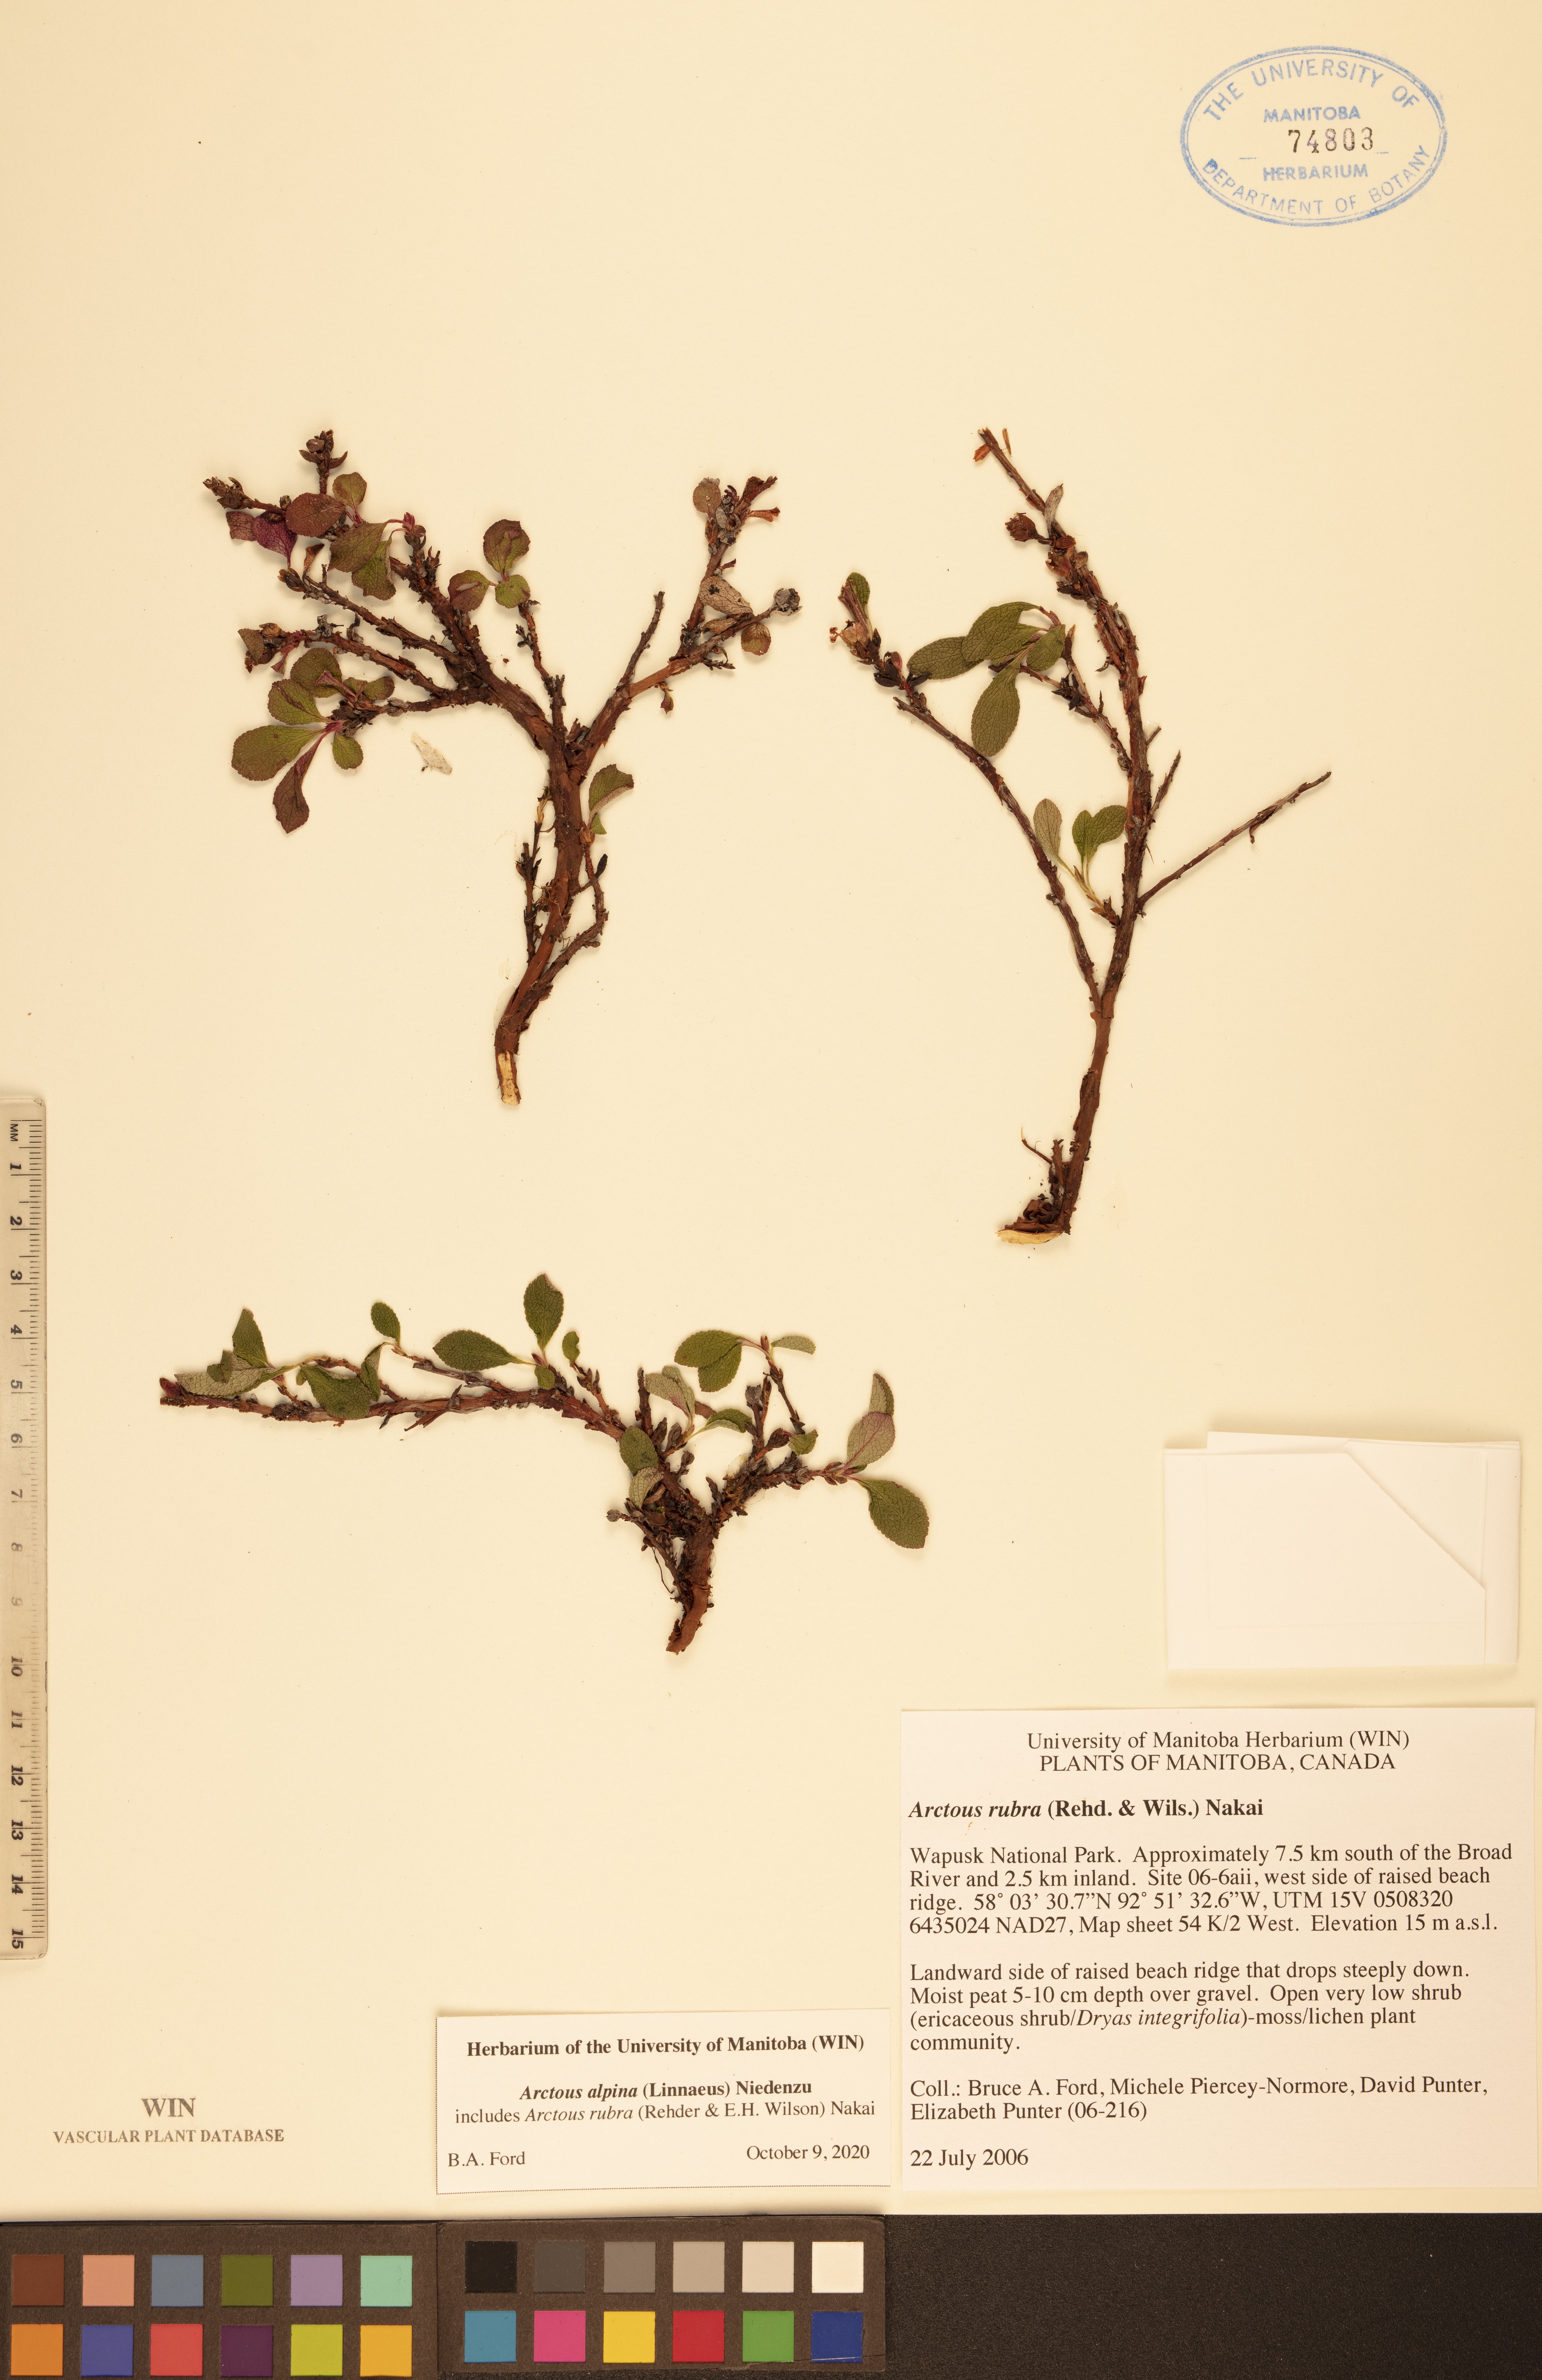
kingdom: Plantae
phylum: Tracheophyta
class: Magnoliopsida
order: Ericales
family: Ericaceae
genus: Arctostaphylos
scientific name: Arctostaphylos alpinus
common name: Alpine bearberry
